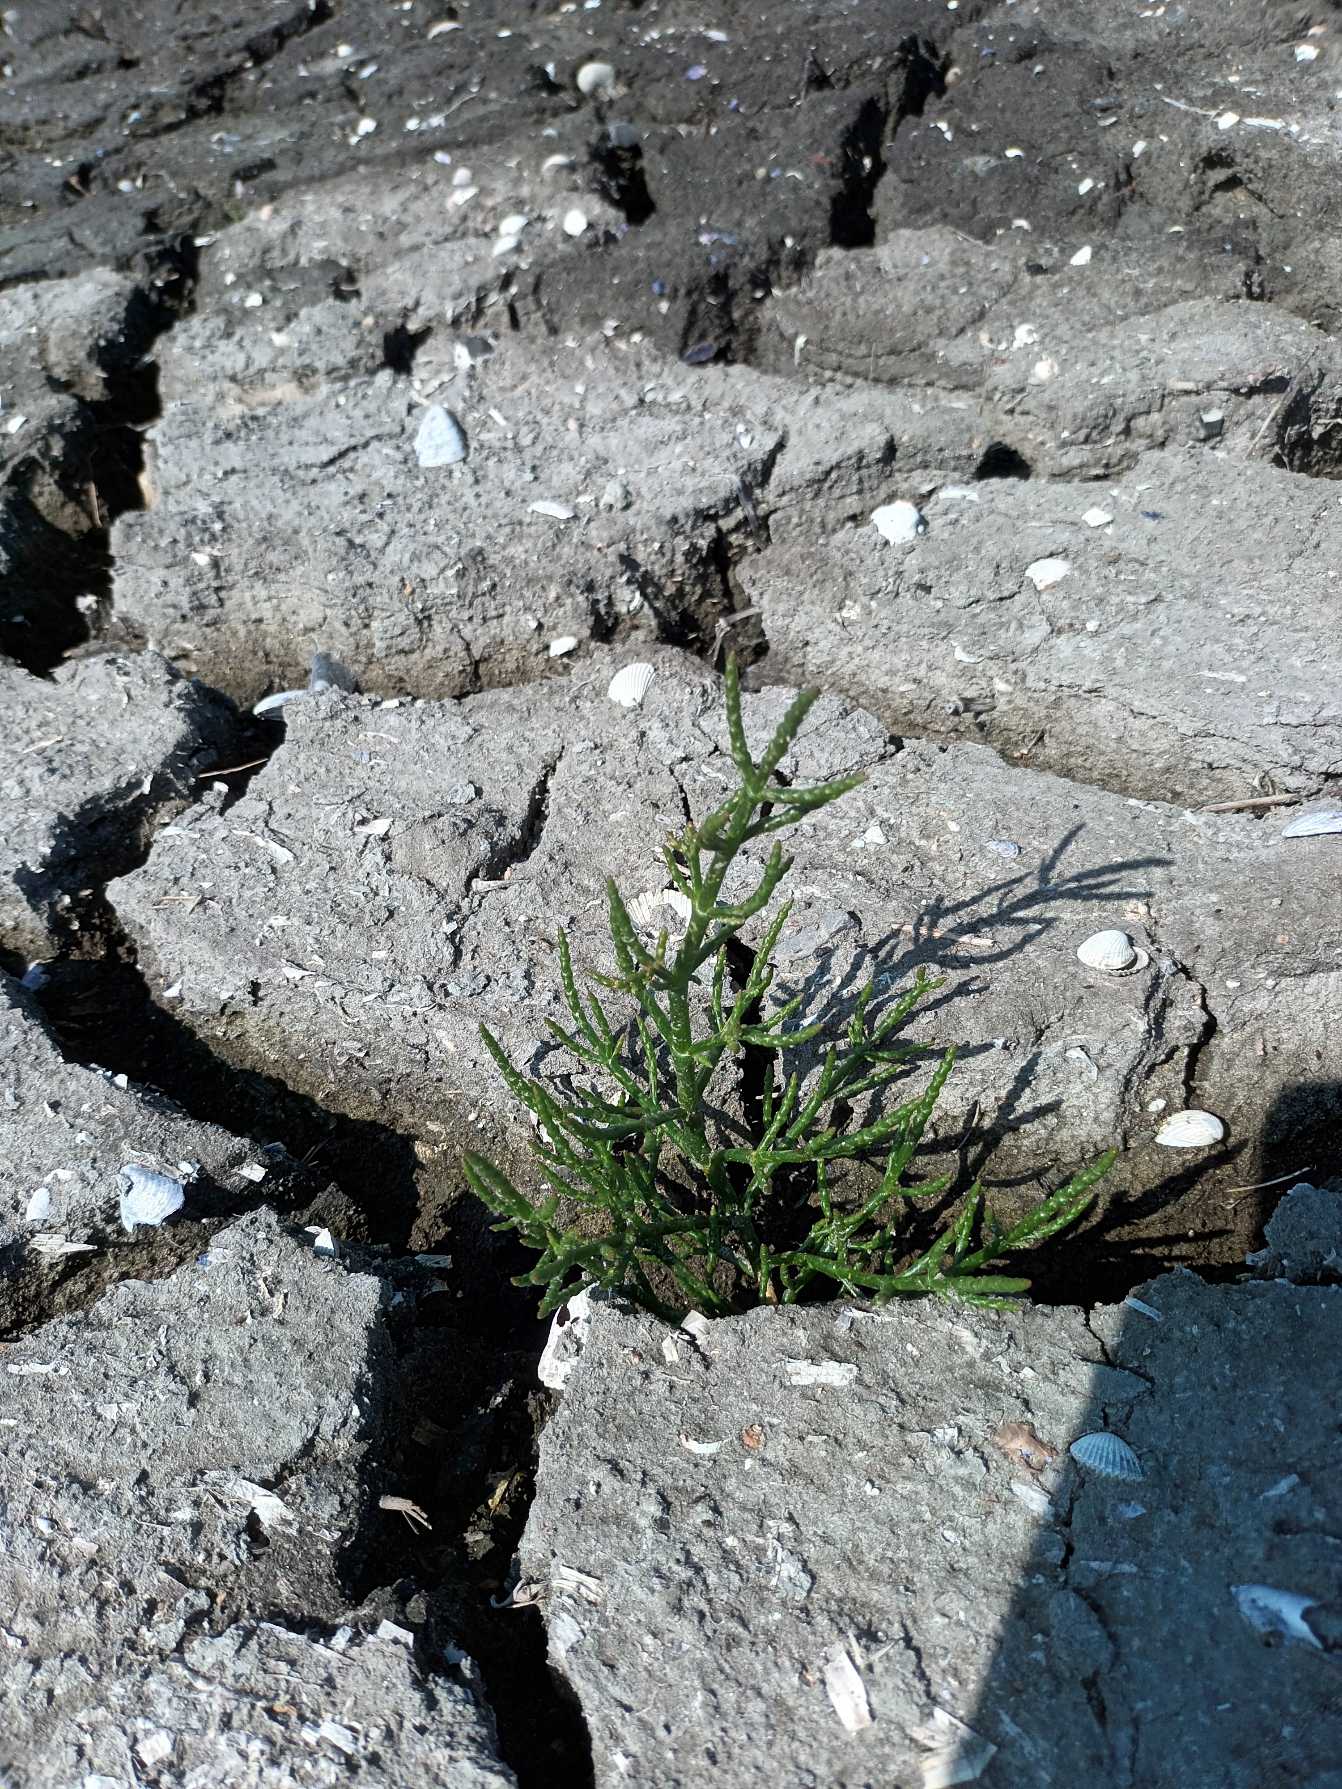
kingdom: Plantae
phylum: Tracheophyta
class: Magnoliopsida
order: Caryophyllales
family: Amaranthaceae
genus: Salicornia
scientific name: Salicornia europaea
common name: Almindelig salturt
